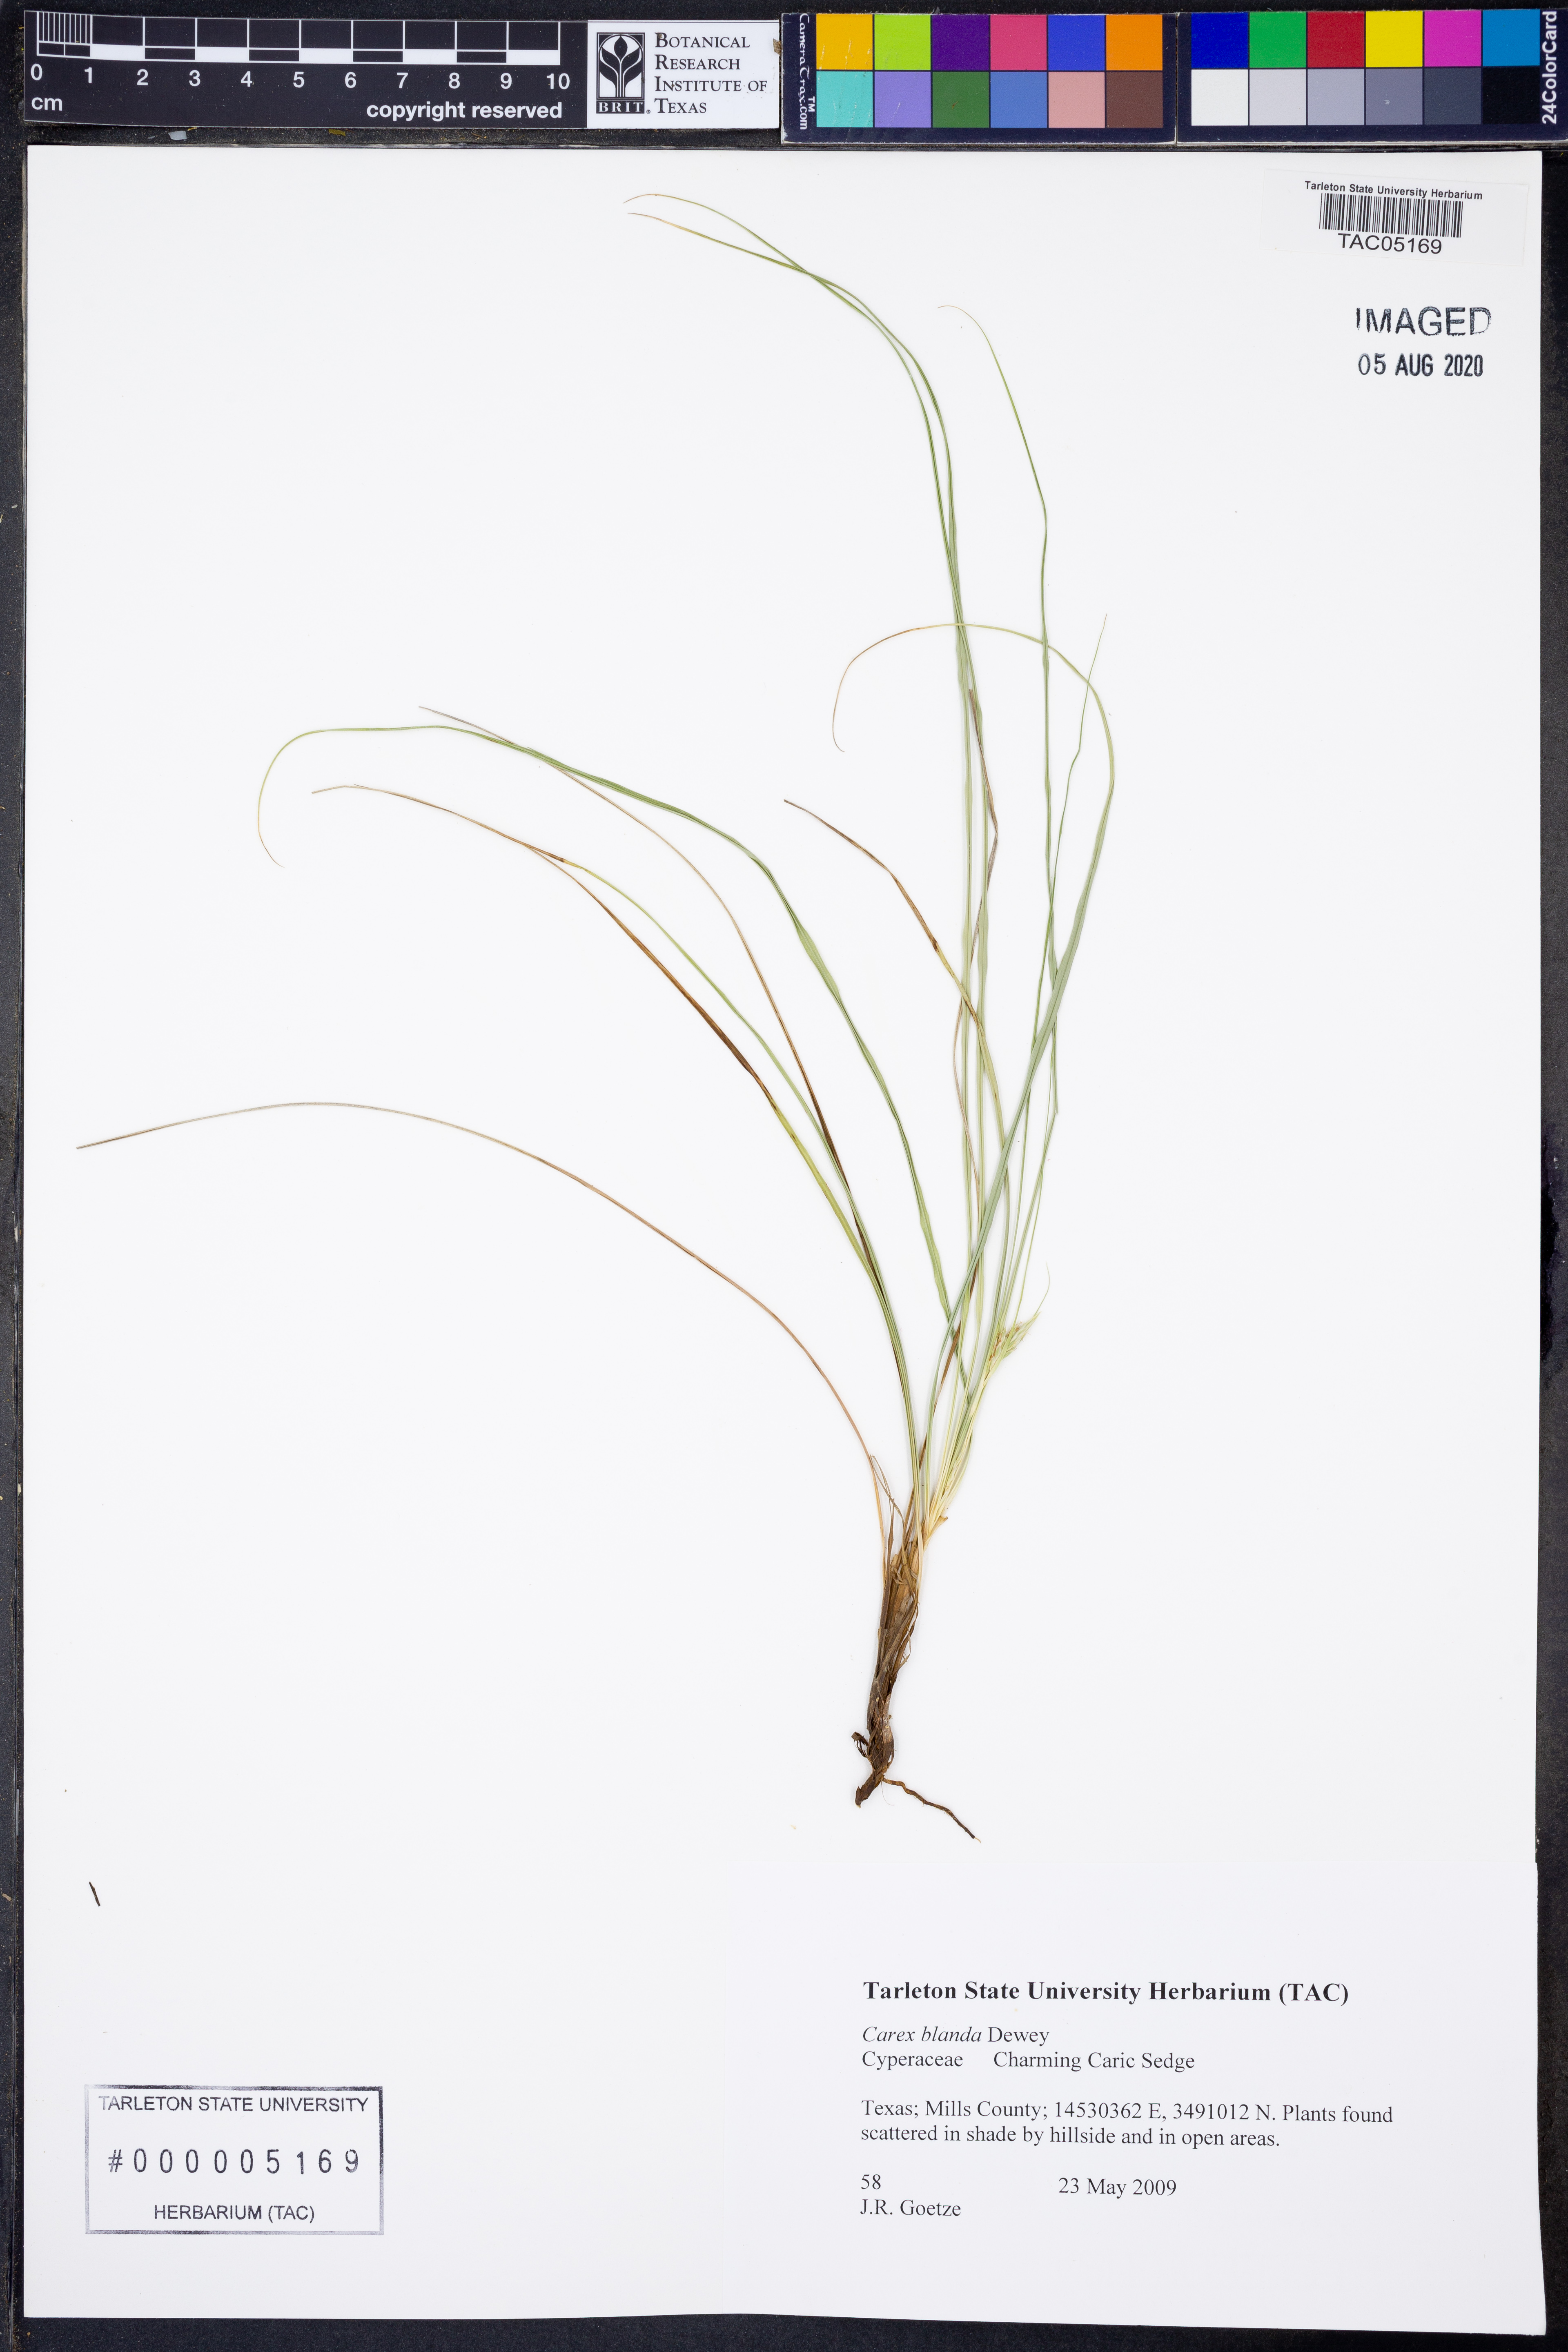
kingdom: Plantae
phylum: Tracheophyta
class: Liliopsida
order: Poales
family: Cyperaceae
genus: Carex
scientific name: Carex blanda
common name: Bland sedge
